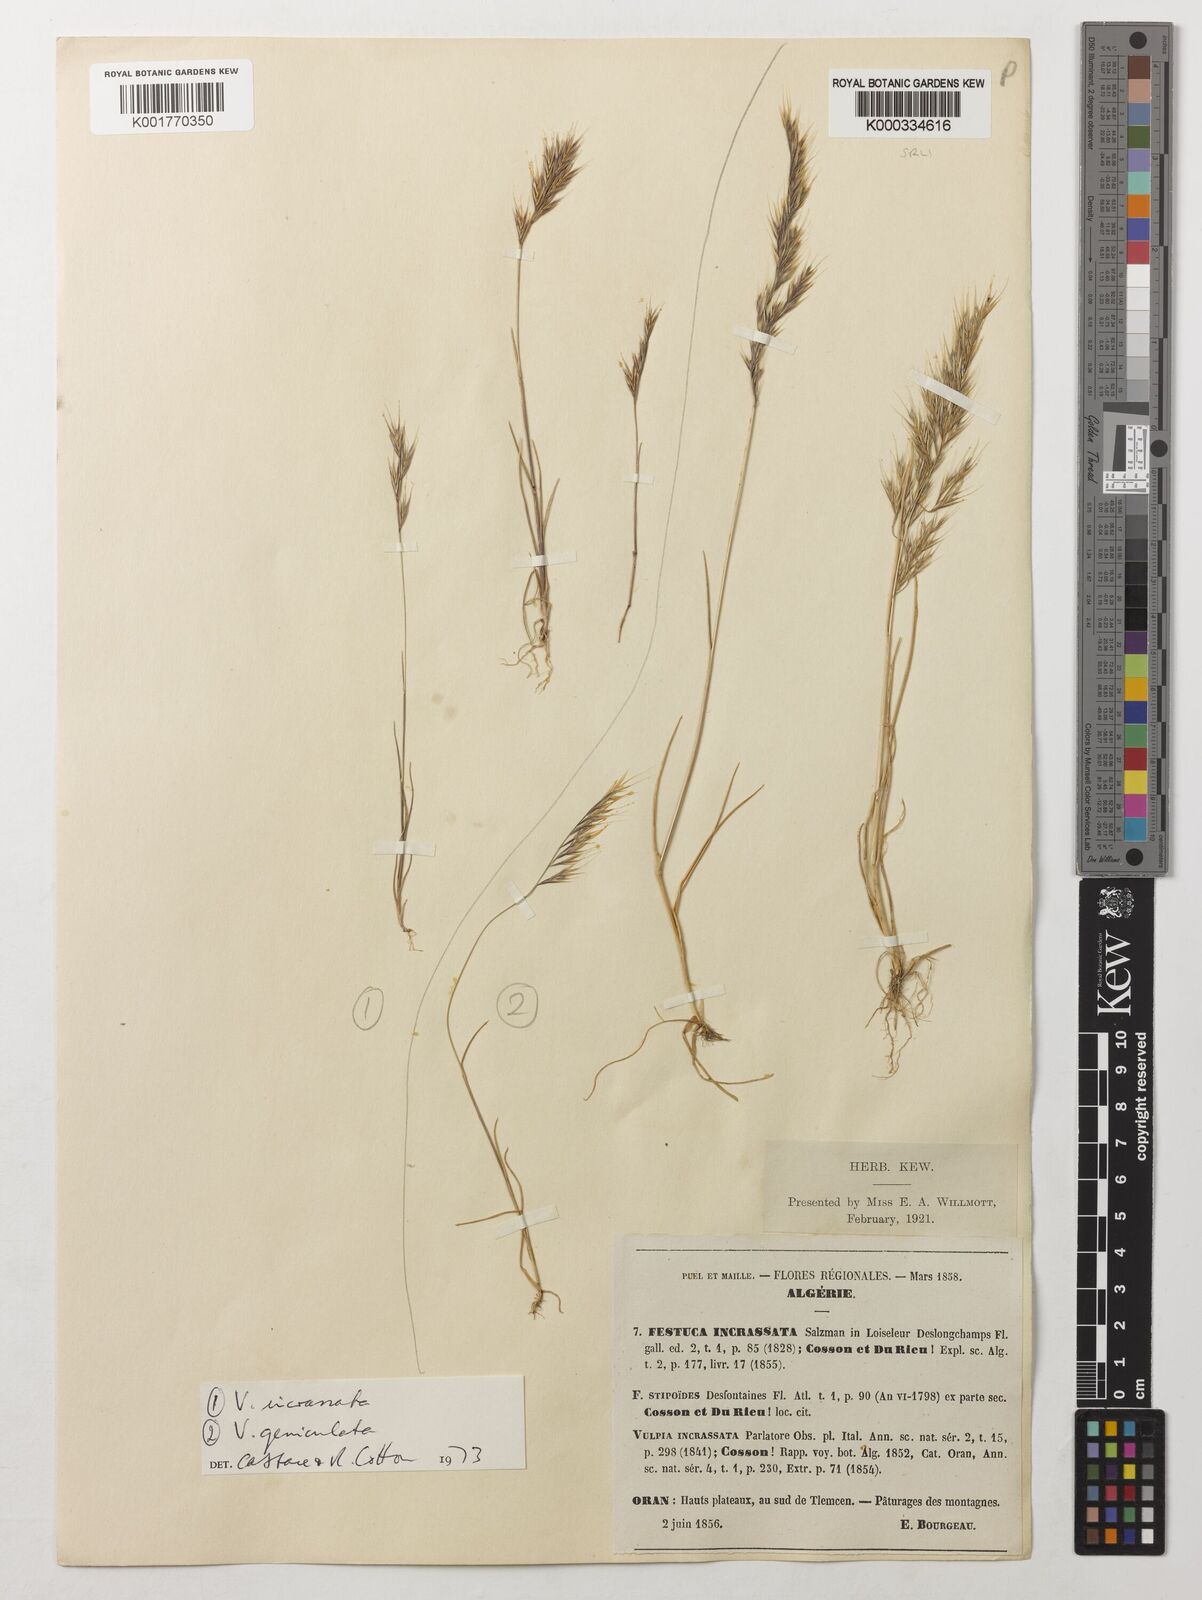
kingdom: Plantae
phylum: Tracheophyta
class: Liliopsida
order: Poales
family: Poaceae
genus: Vulpiella
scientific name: Vulpiella stipoides
